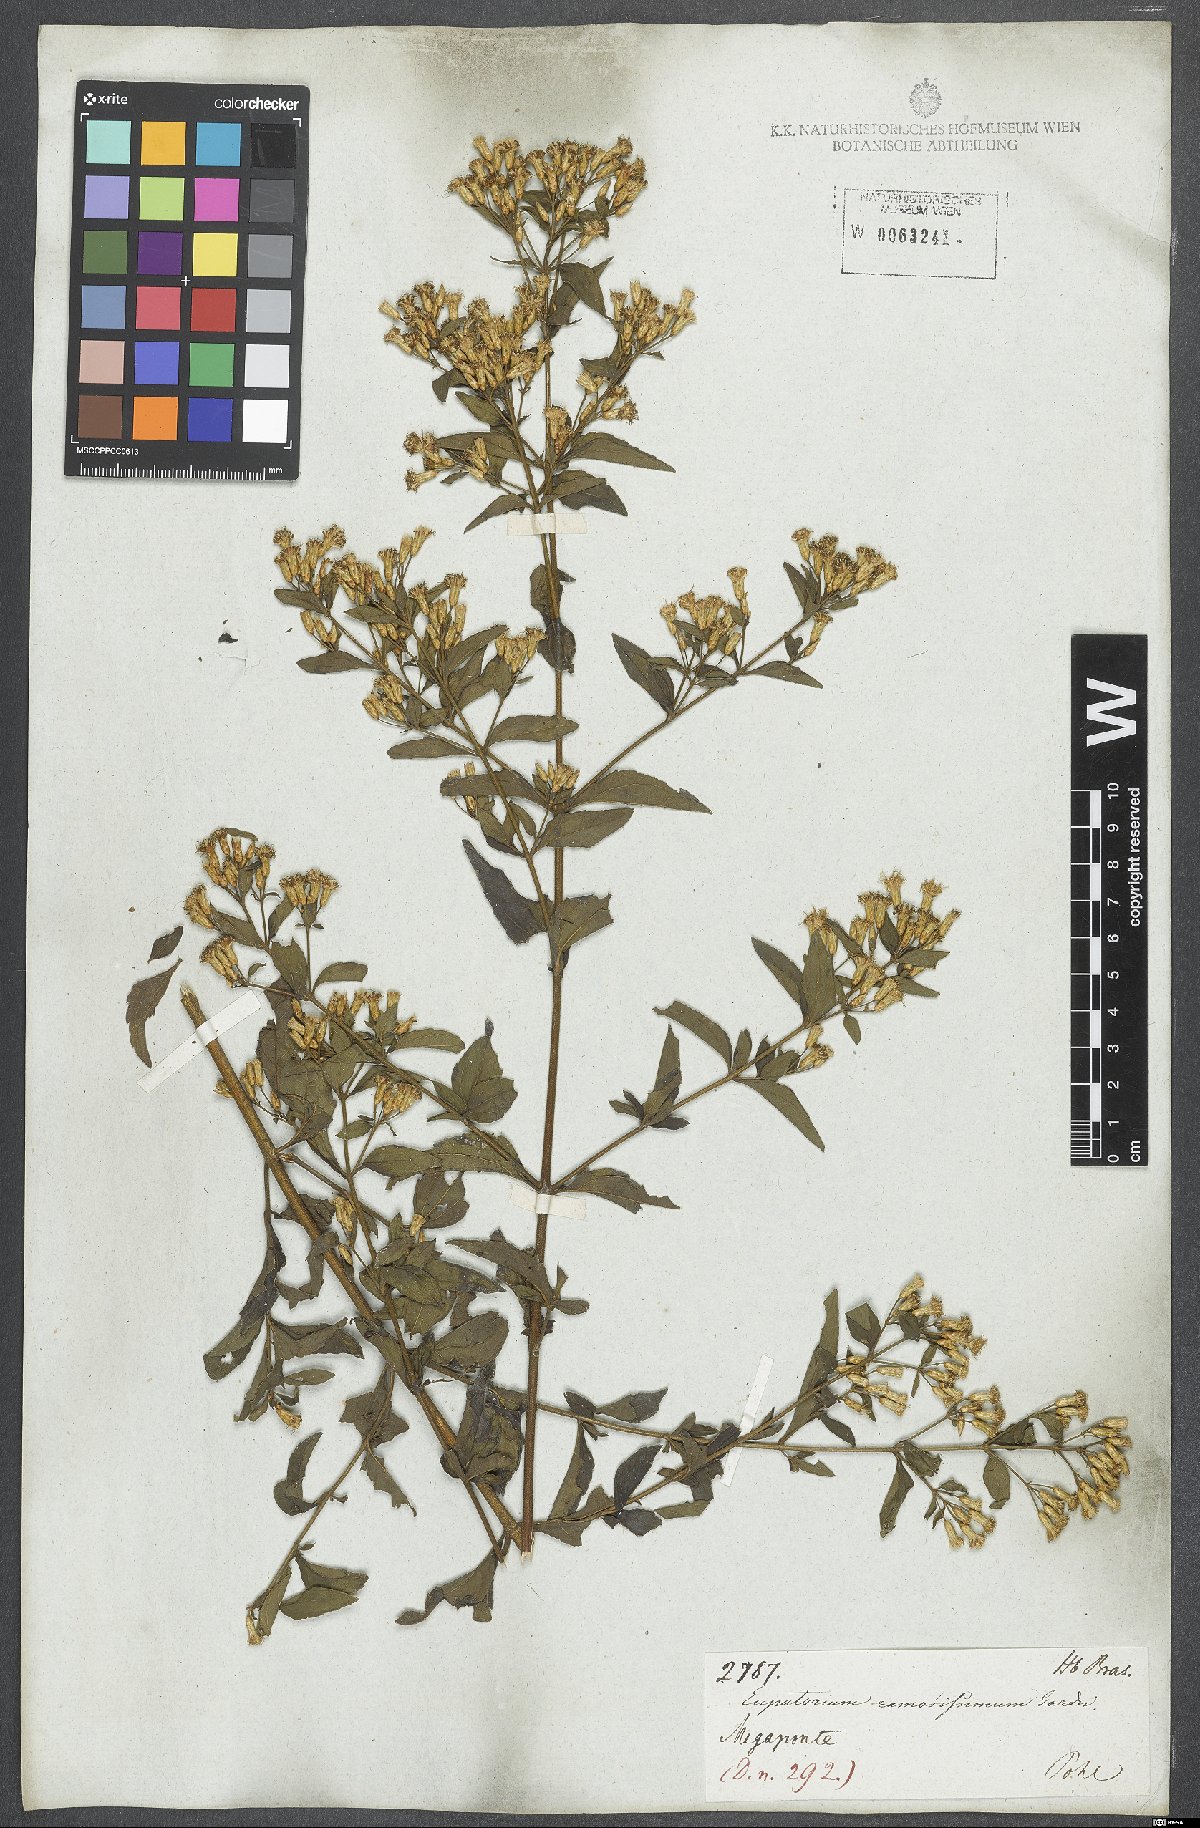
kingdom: Plantae
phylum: Tracheophyta
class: Magnoliopsida
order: Asterales
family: Asteraceae
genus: Chromolaena
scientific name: Chromolaena squalida
